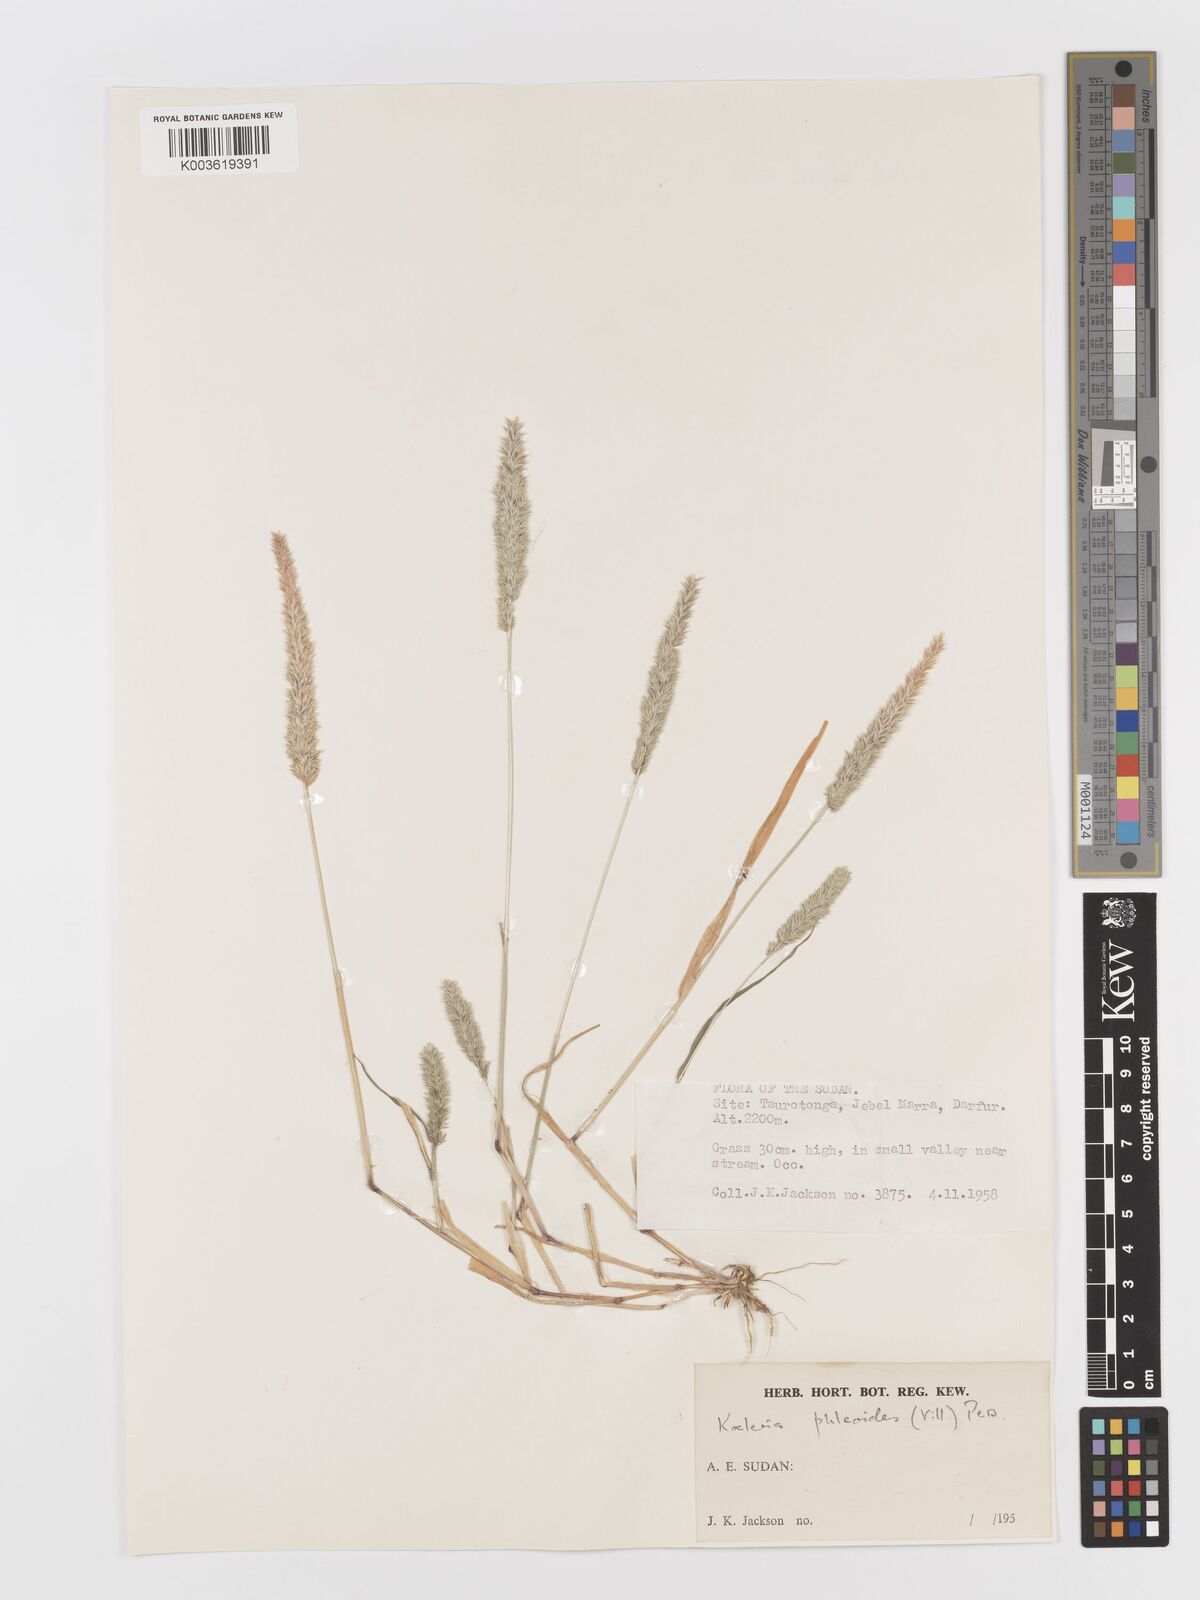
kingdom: Plantae
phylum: Tracheophyta
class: Liliopsida
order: Poales
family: Poaceae
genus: Rostraria
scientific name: Rostraria cristata
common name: Mediterranean hair-grass
